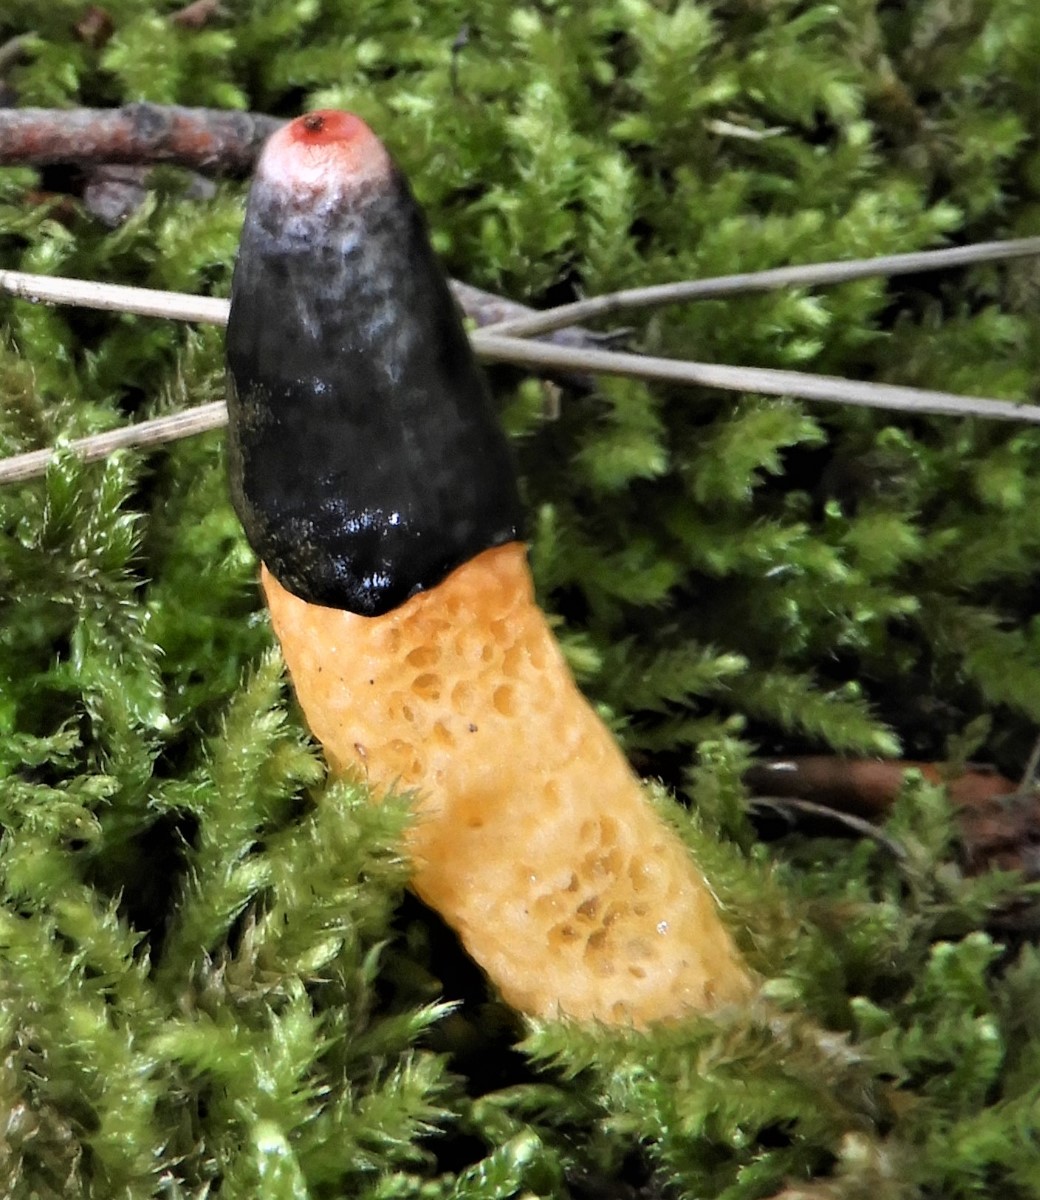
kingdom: Fungi
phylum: Basidiomycota
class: Agaricomycetes
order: Phallales
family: Phallaceae
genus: Mutinus
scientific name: Mutinus caninus
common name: hunde-stinksvamp
